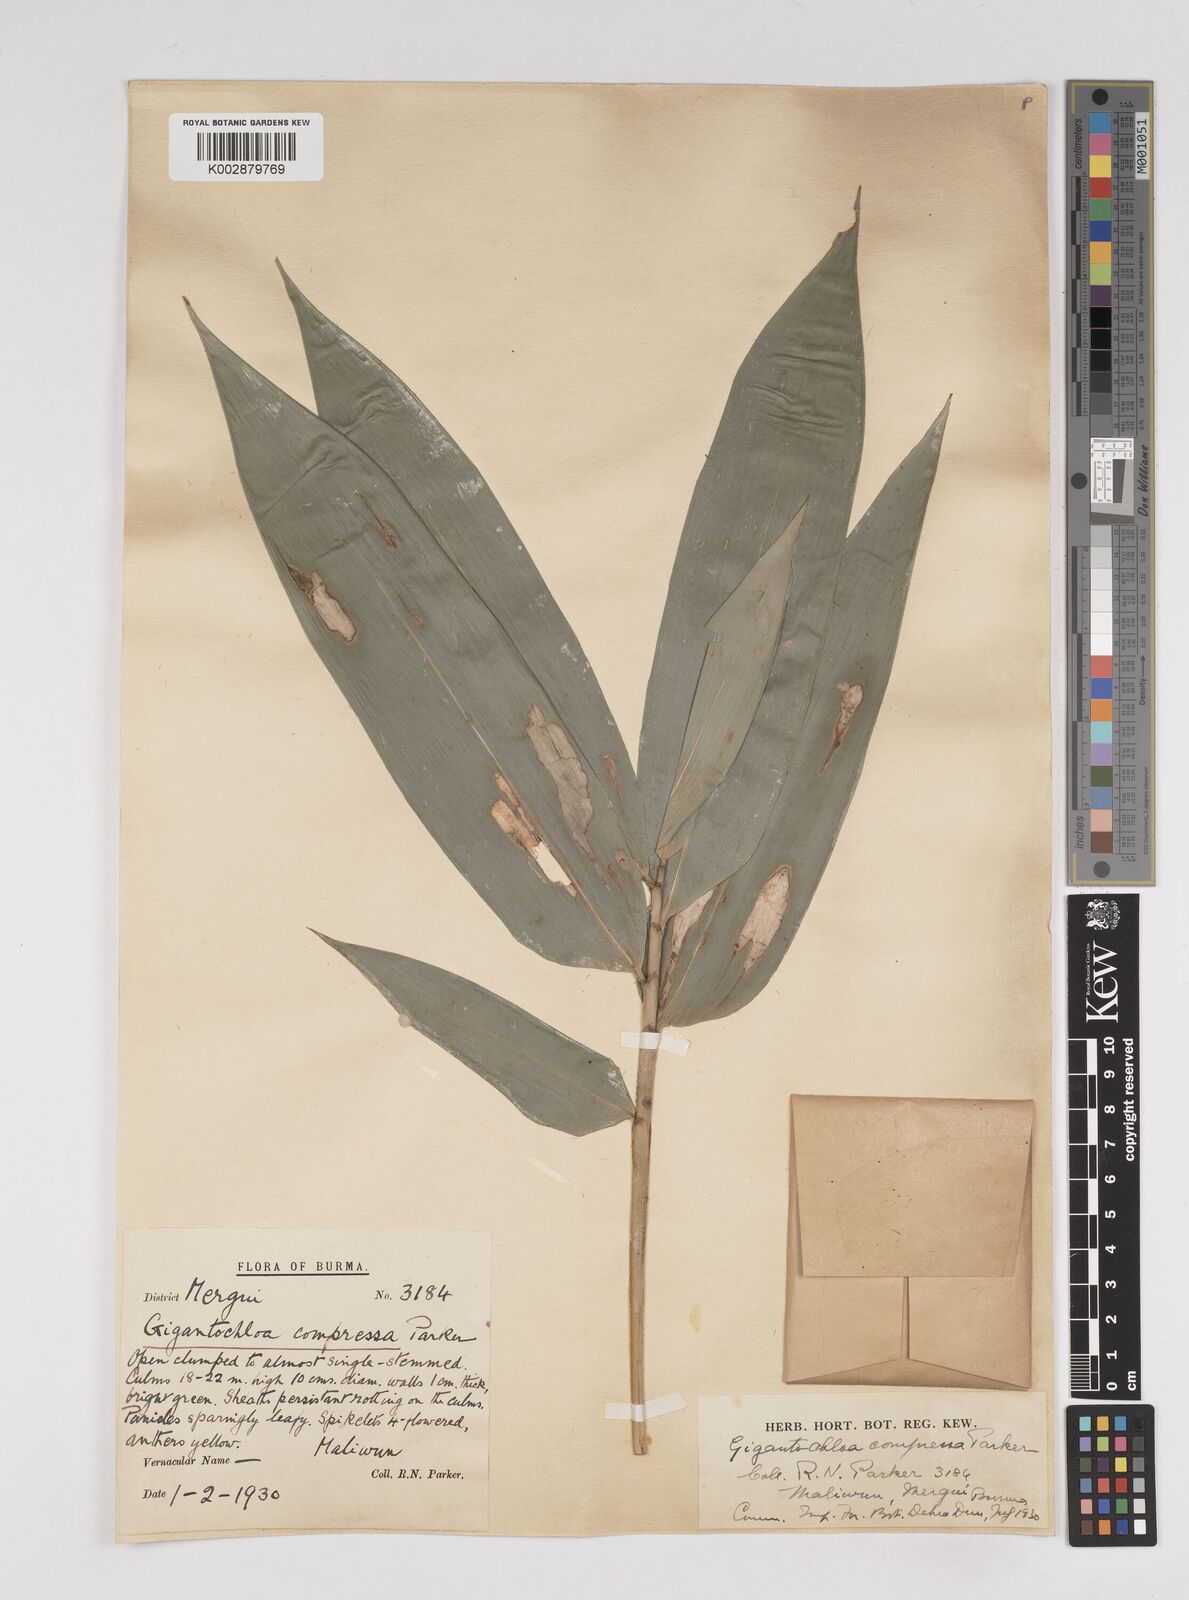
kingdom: Plantae
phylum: Tracheophyta
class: Liliopsida
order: Poales
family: Poaceae
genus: Gigantochloa
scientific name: Gigantochloa compressa
